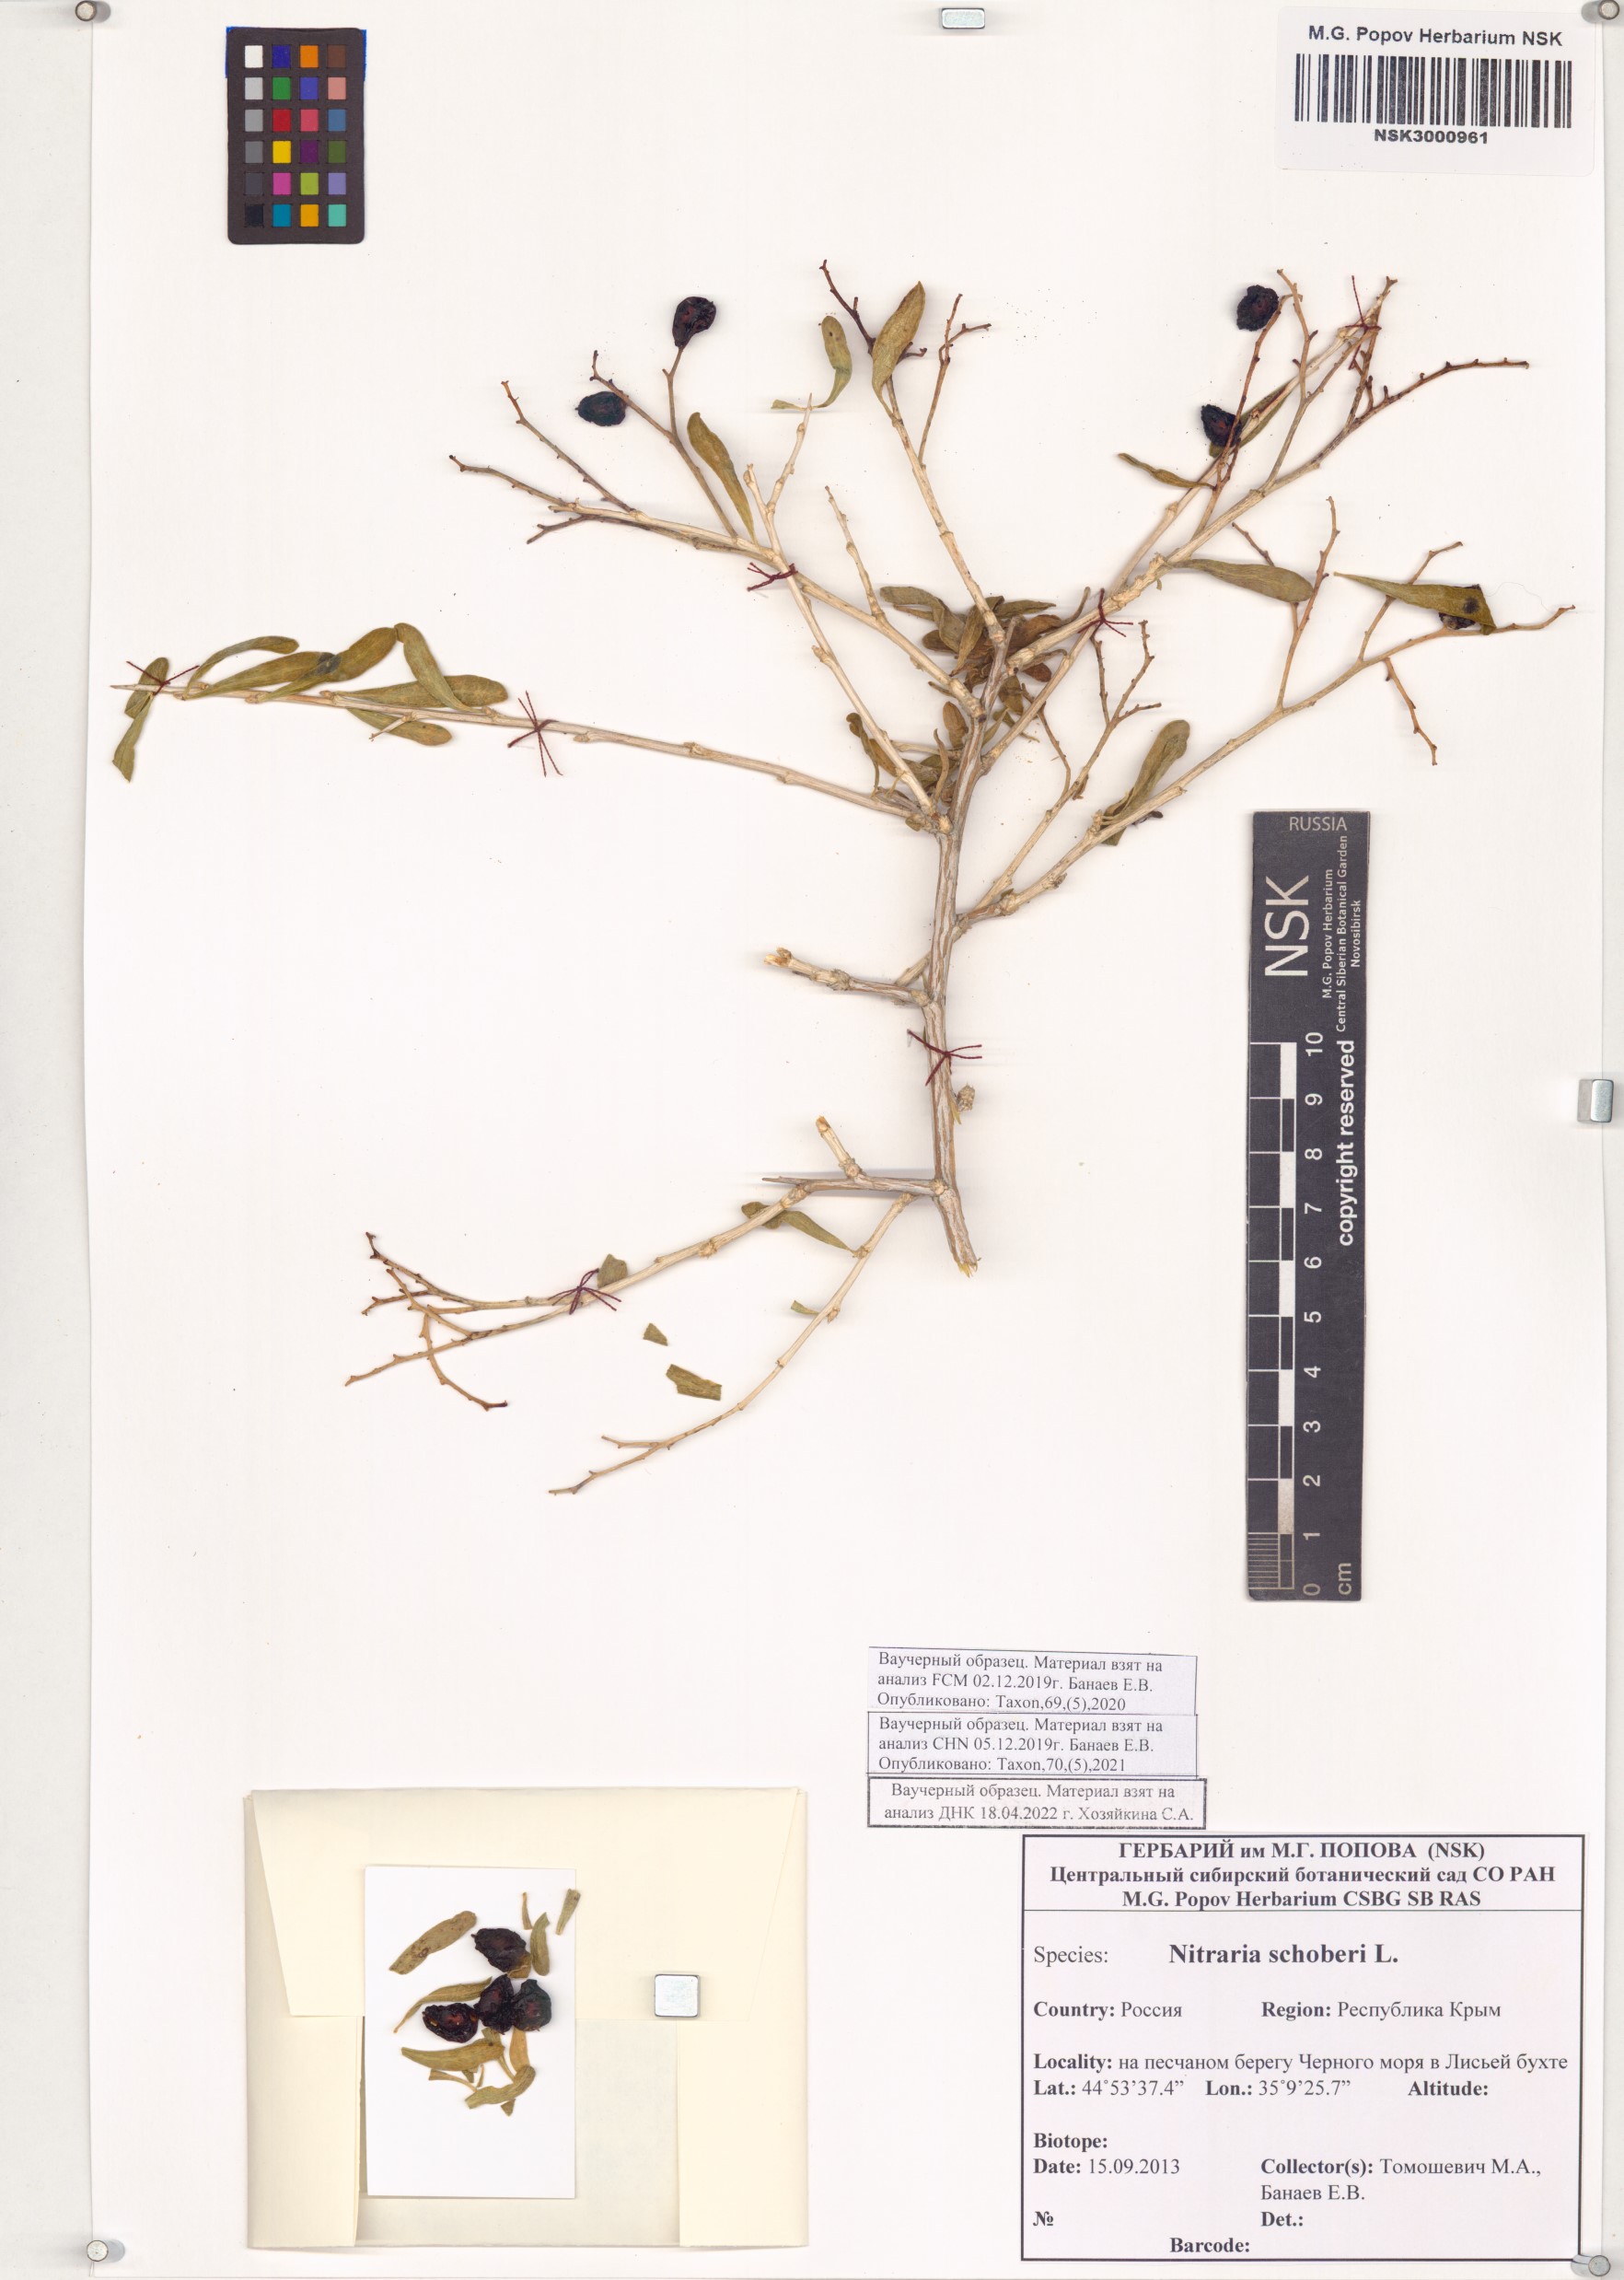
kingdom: Plantae
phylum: Tracheophyta
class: Magnoliopsida
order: Sapindales
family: Nitrariaceae
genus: Nitraria
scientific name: Nitraria schoberi
